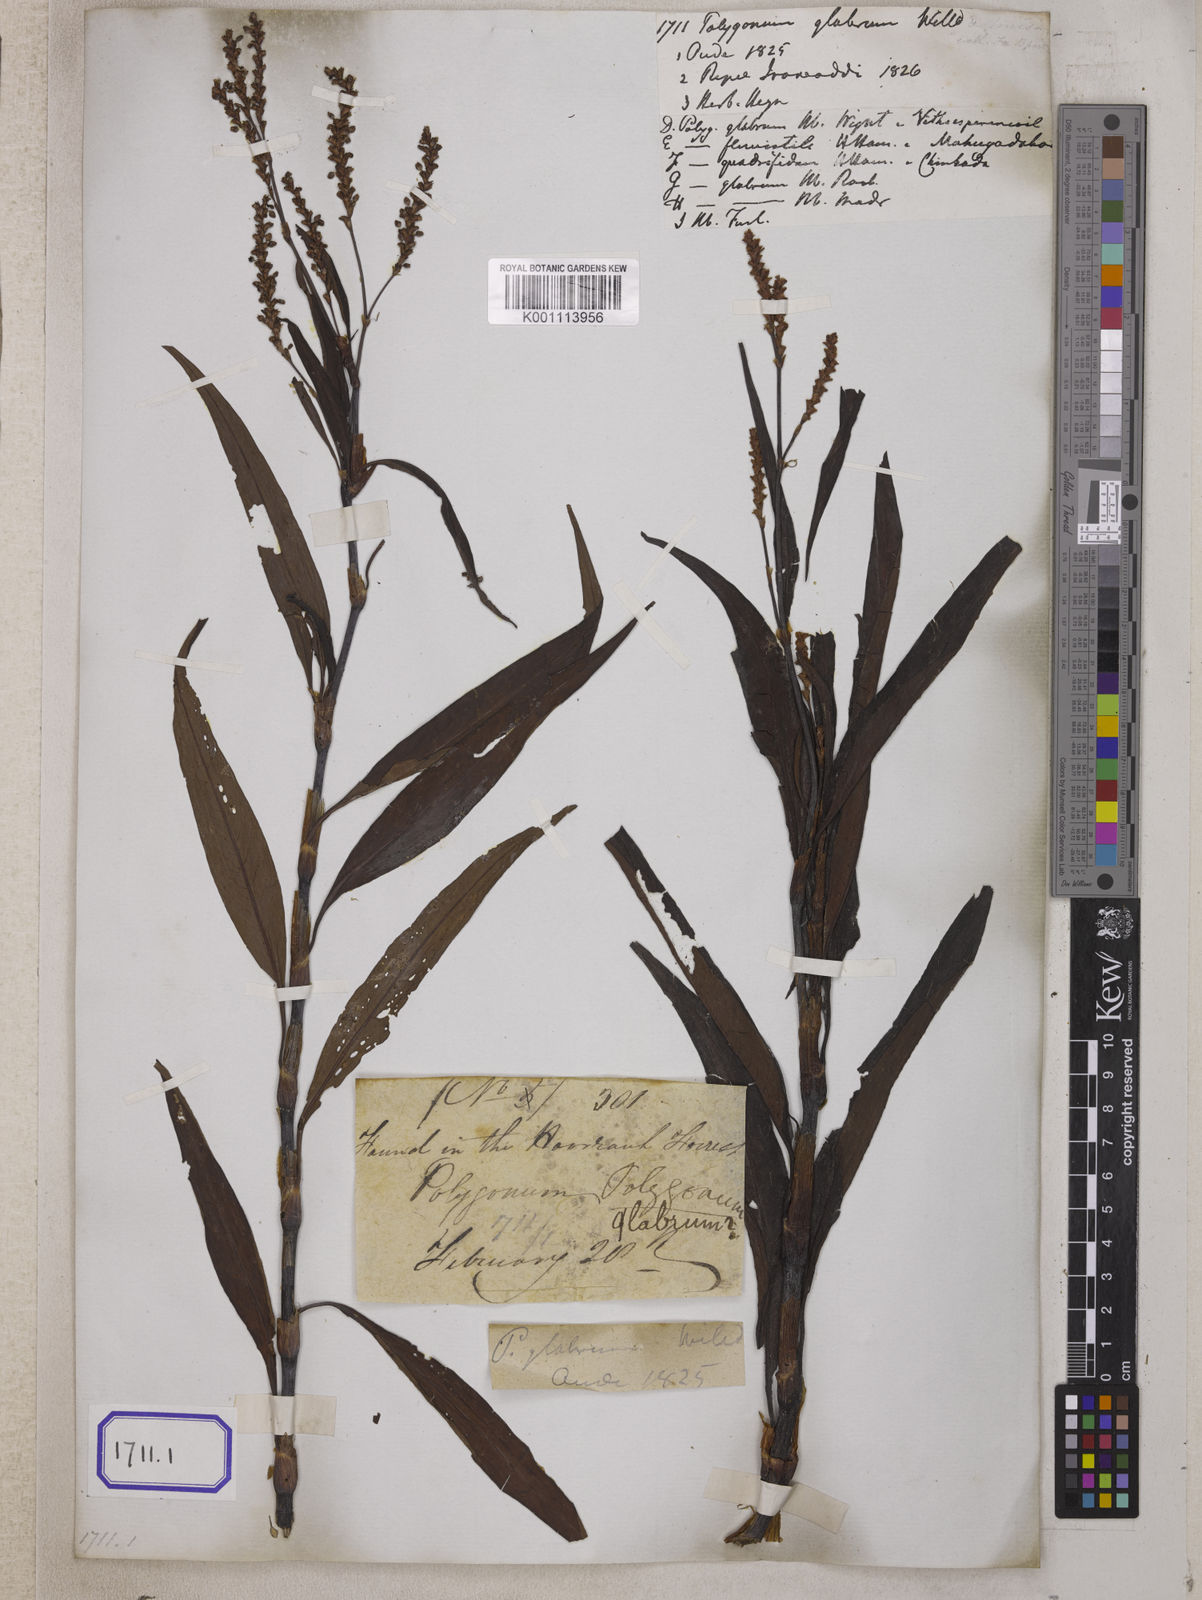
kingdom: Plantae
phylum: Tracheophyta
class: Magnoliopsida
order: Caryophyllales
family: Polygonaceae
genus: Persicaria
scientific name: Persicaria glabra
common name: Denseflower knotweed
